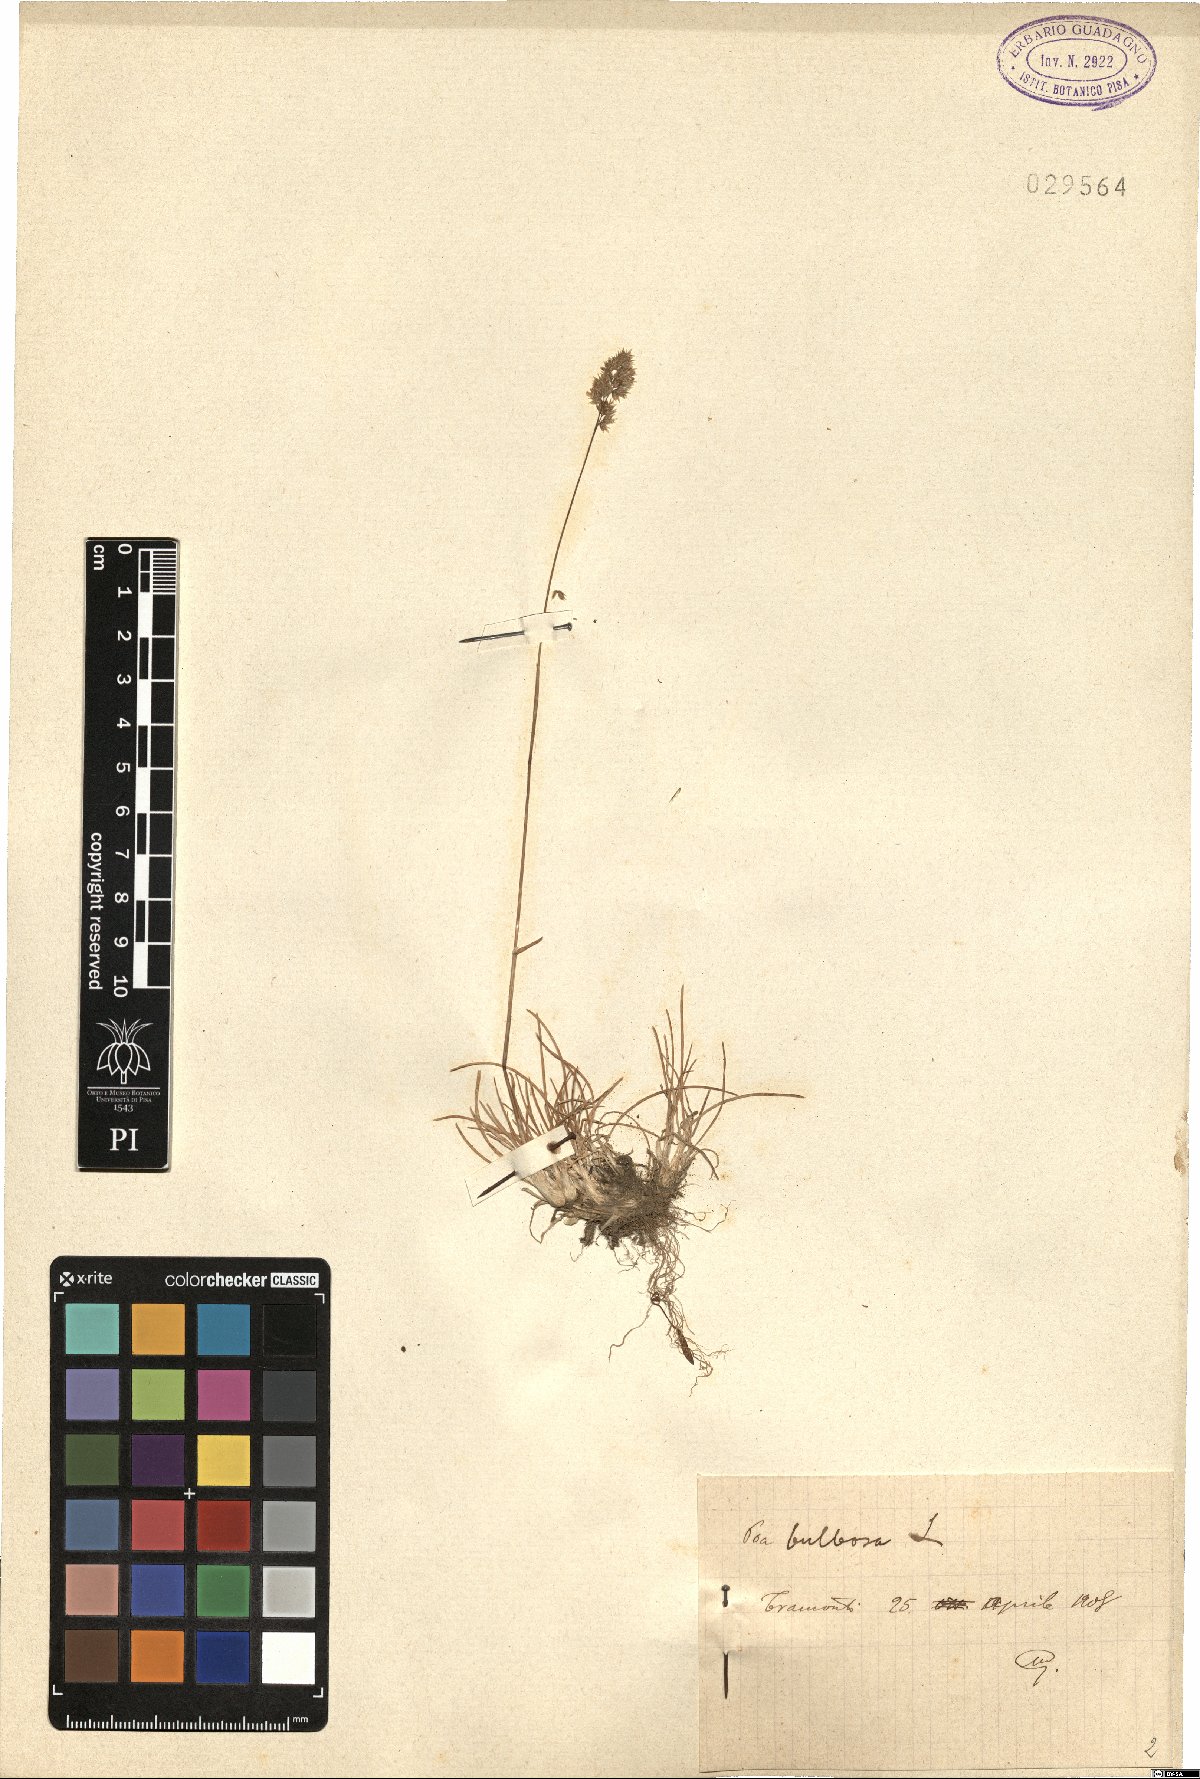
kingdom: Plantae
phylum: Tracheophyta
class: Liliopsida
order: Poales
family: Poaceae
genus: Poa
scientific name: Poa bulbosa
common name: Bulbous bluegrass
